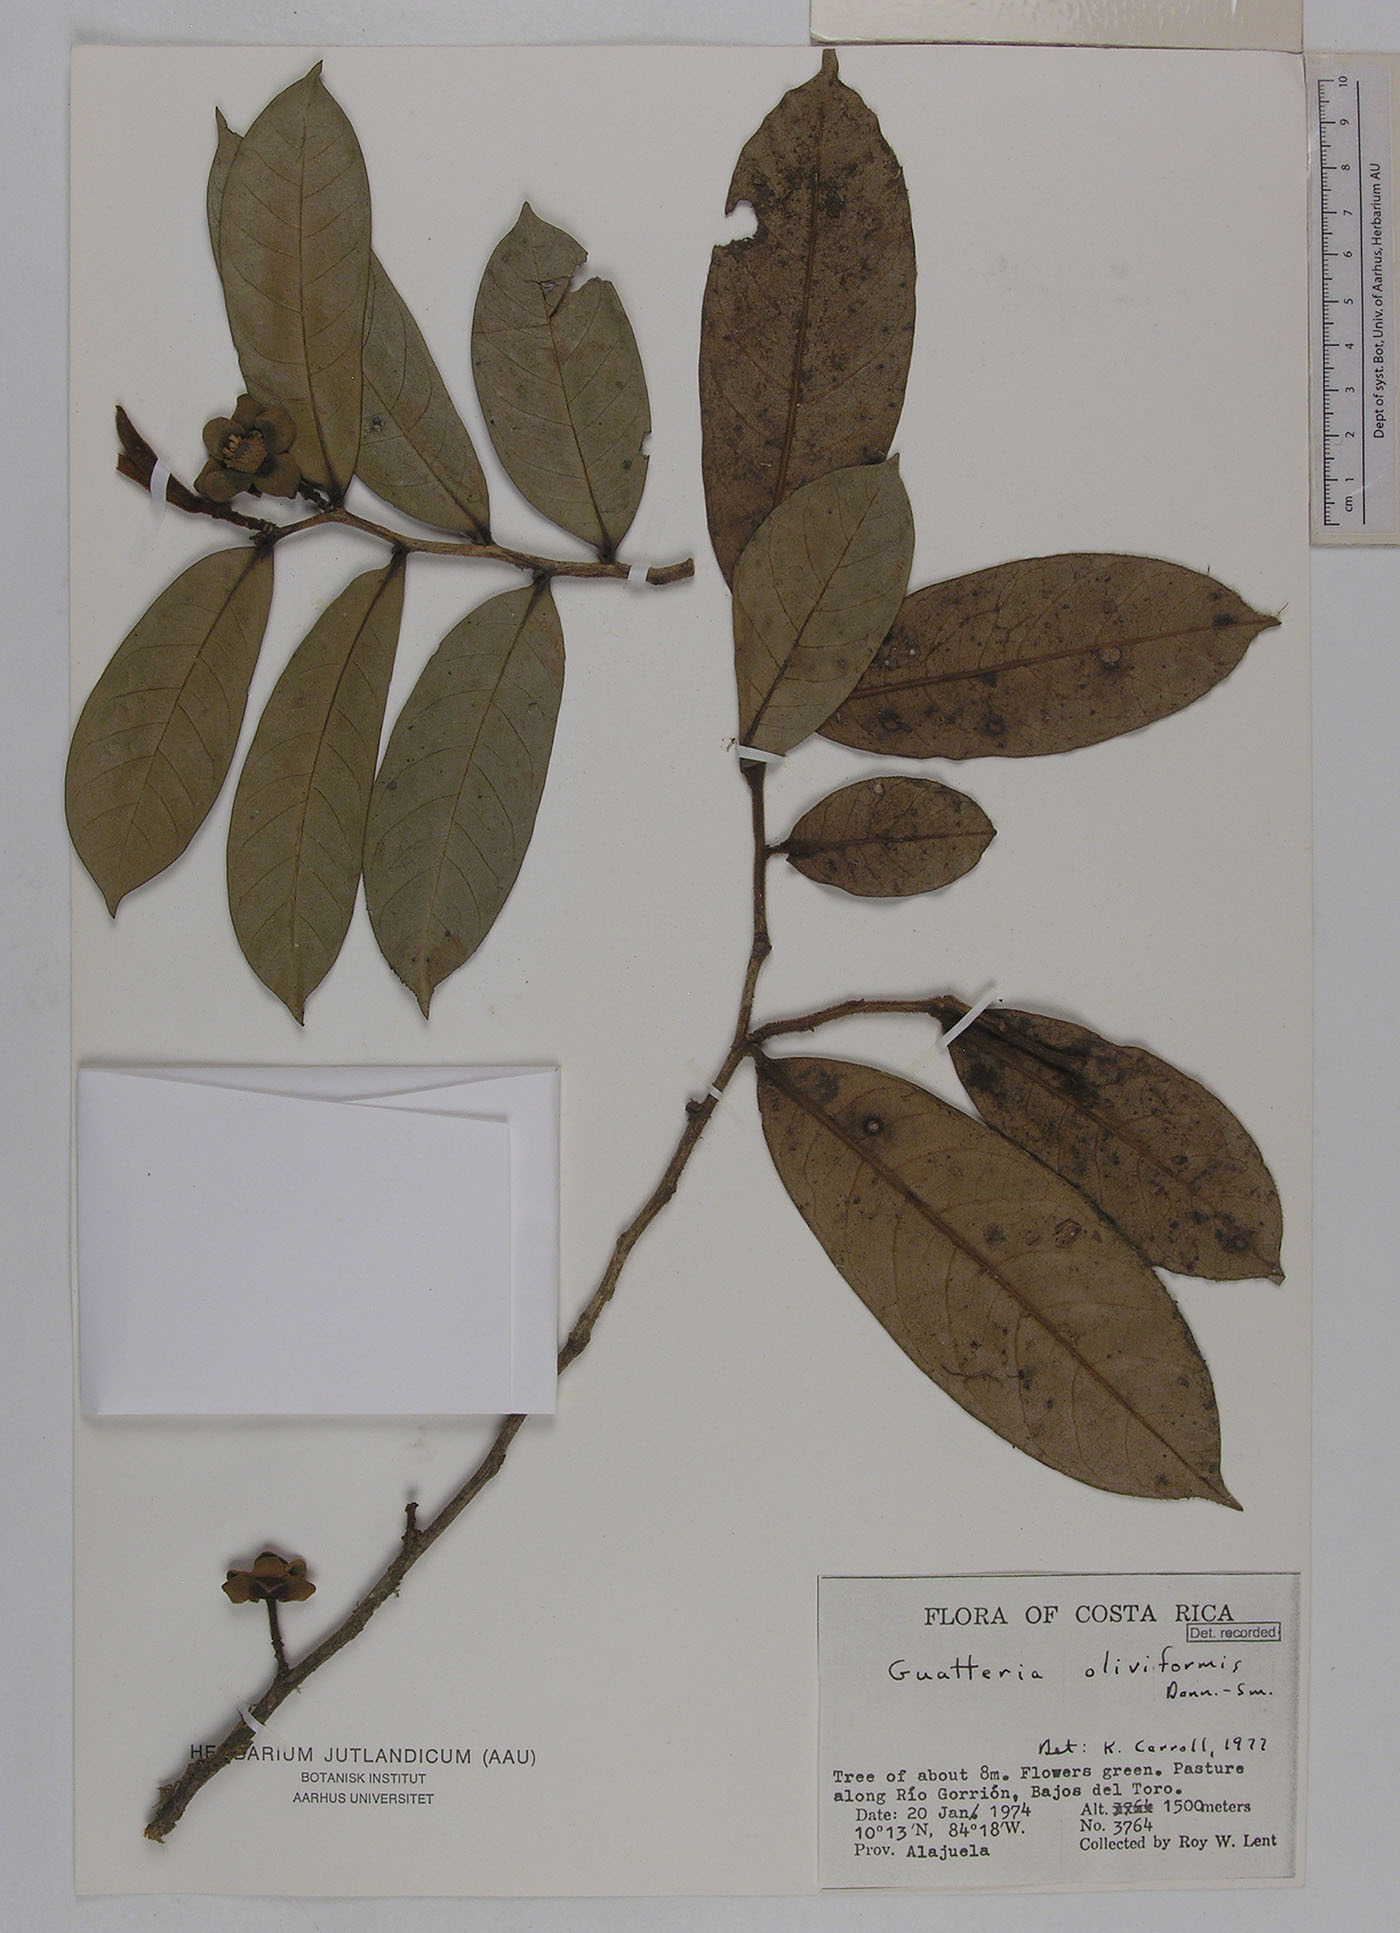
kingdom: Plantae
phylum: Tracheophyta
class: Magnoliopsida
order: Magnoliales
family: Annonaceae
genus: Guatteria
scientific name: Guatteria oliviformis
